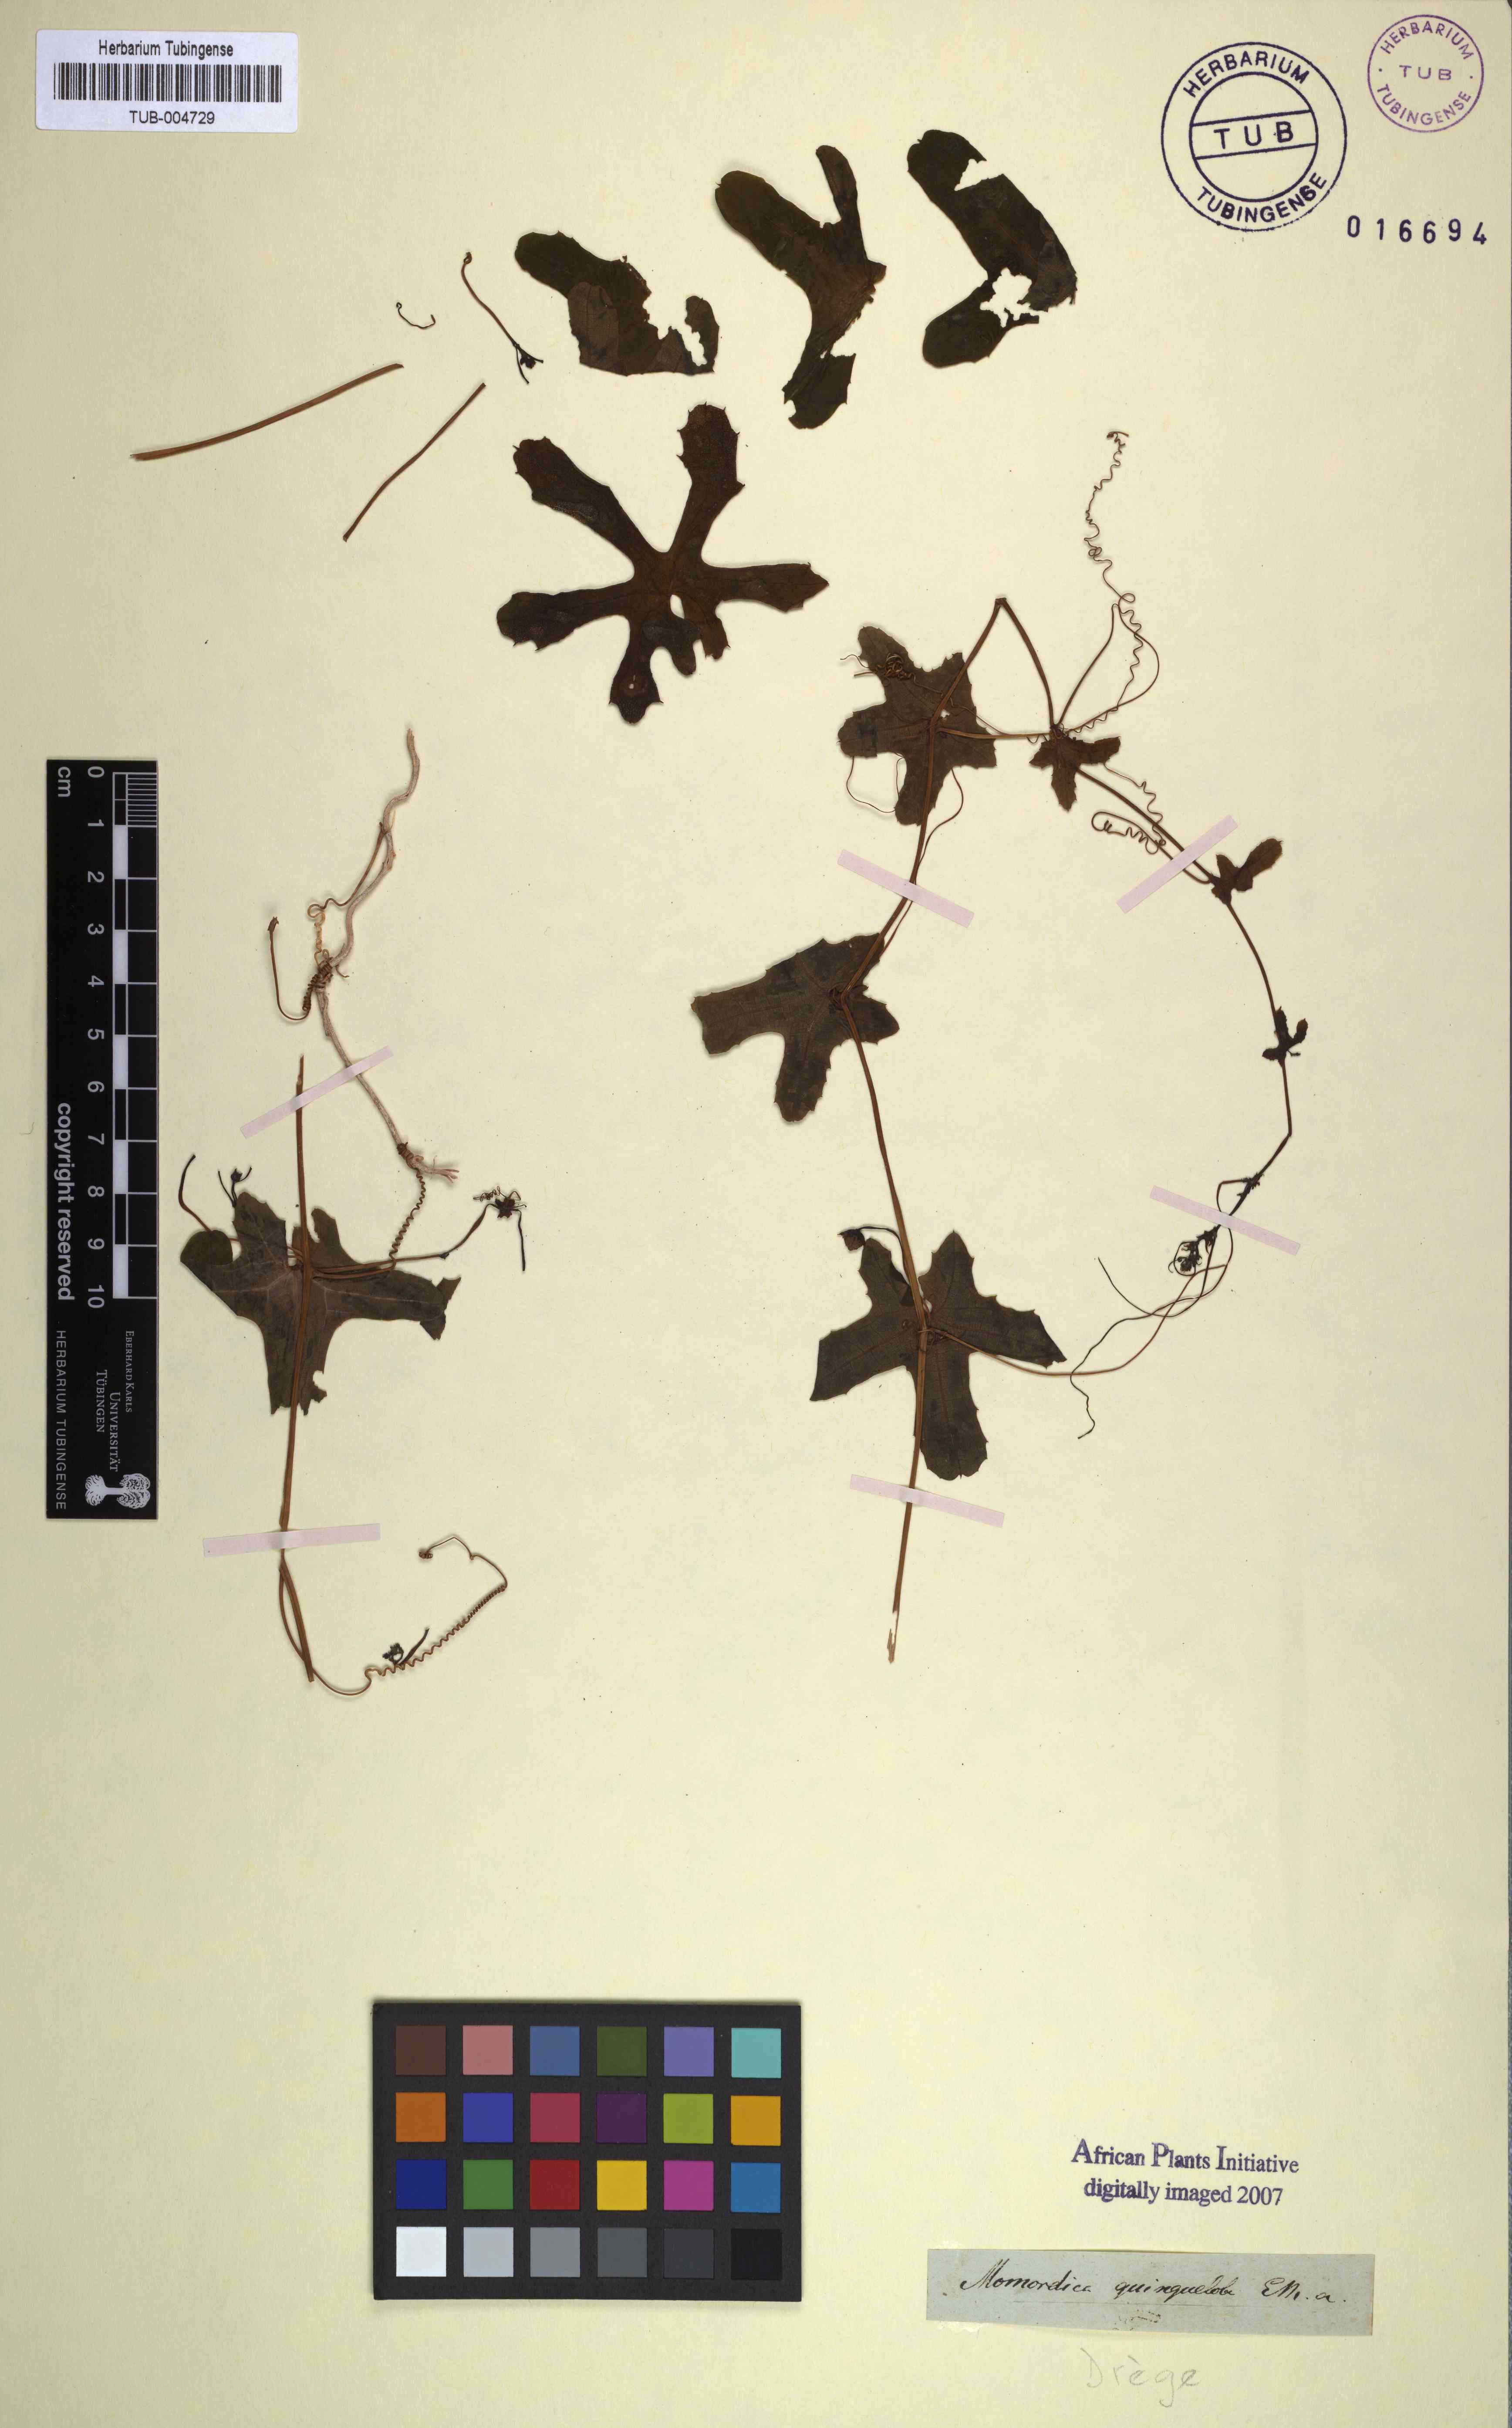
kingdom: Plantae
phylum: Tracheophyta
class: Magnoliopsida
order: Cucurbitales
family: Cucurbitaceae
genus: Coccinia
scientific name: Coccinia quinqueloba
